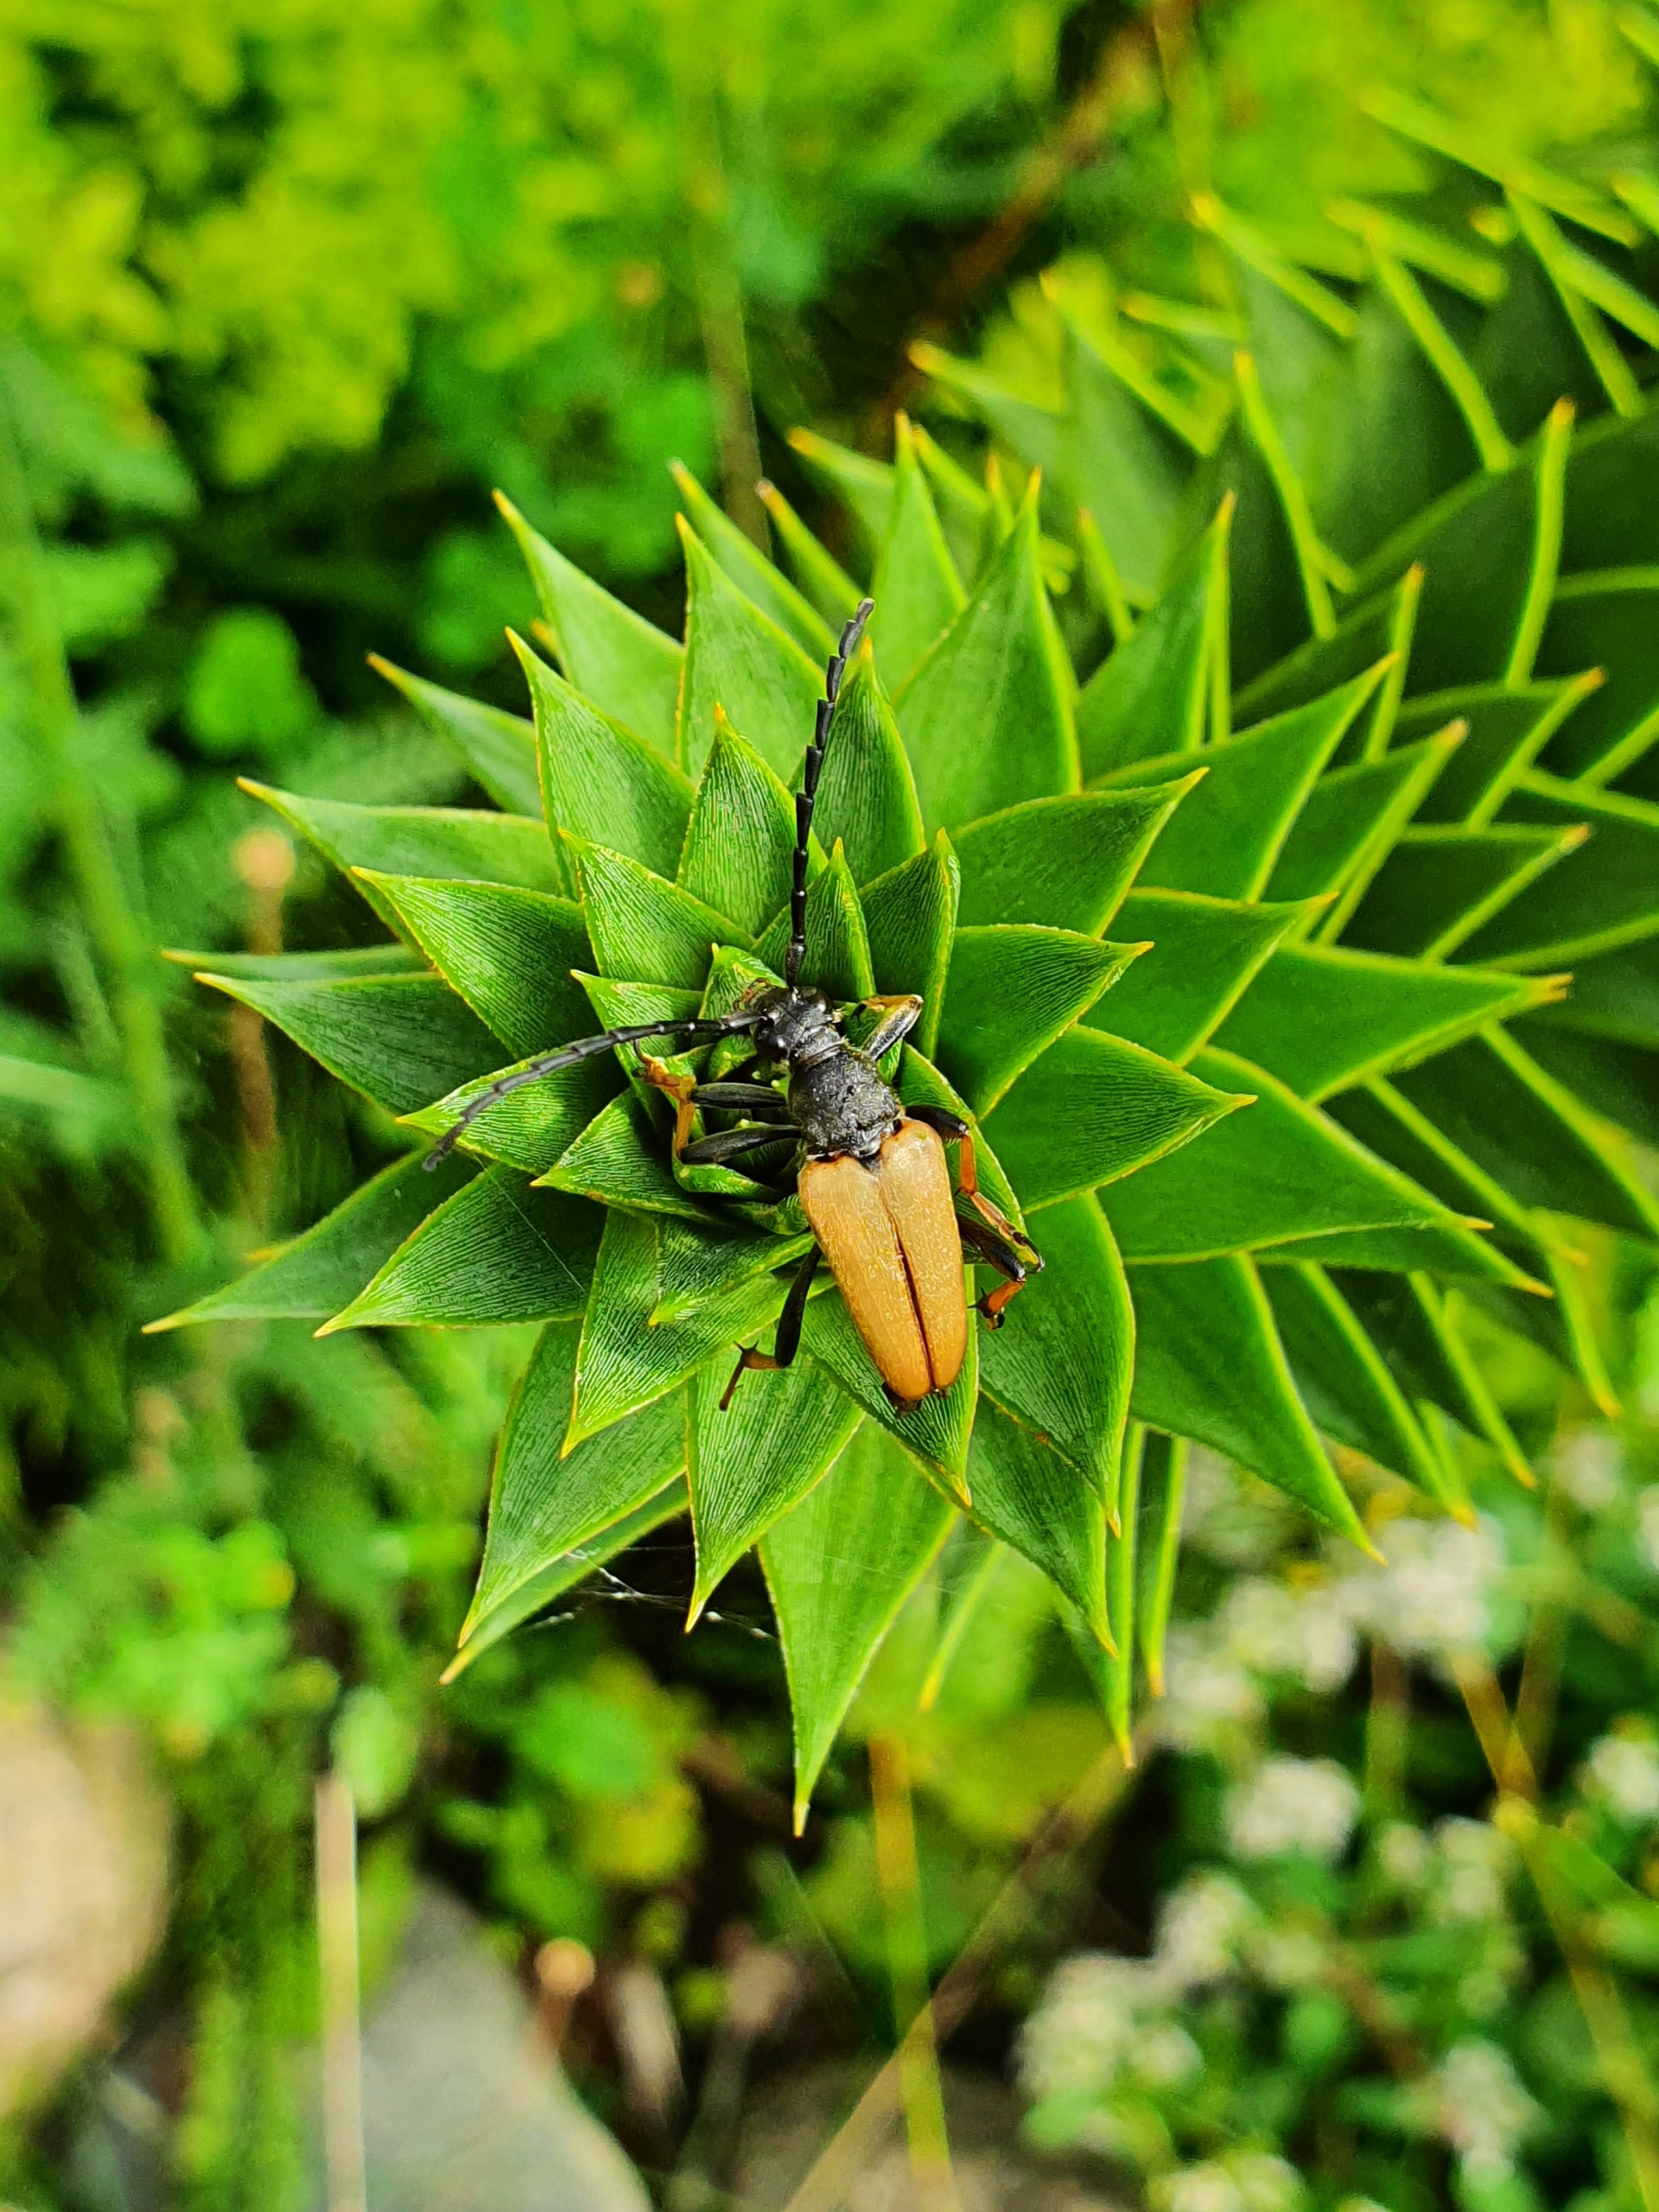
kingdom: Animalia
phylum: Arthropoda
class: Insecta
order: Coleoptera
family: Cerambycidae
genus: Stictoleptura
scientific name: Stictoleptura rubra
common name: Rød blomsterbuk
